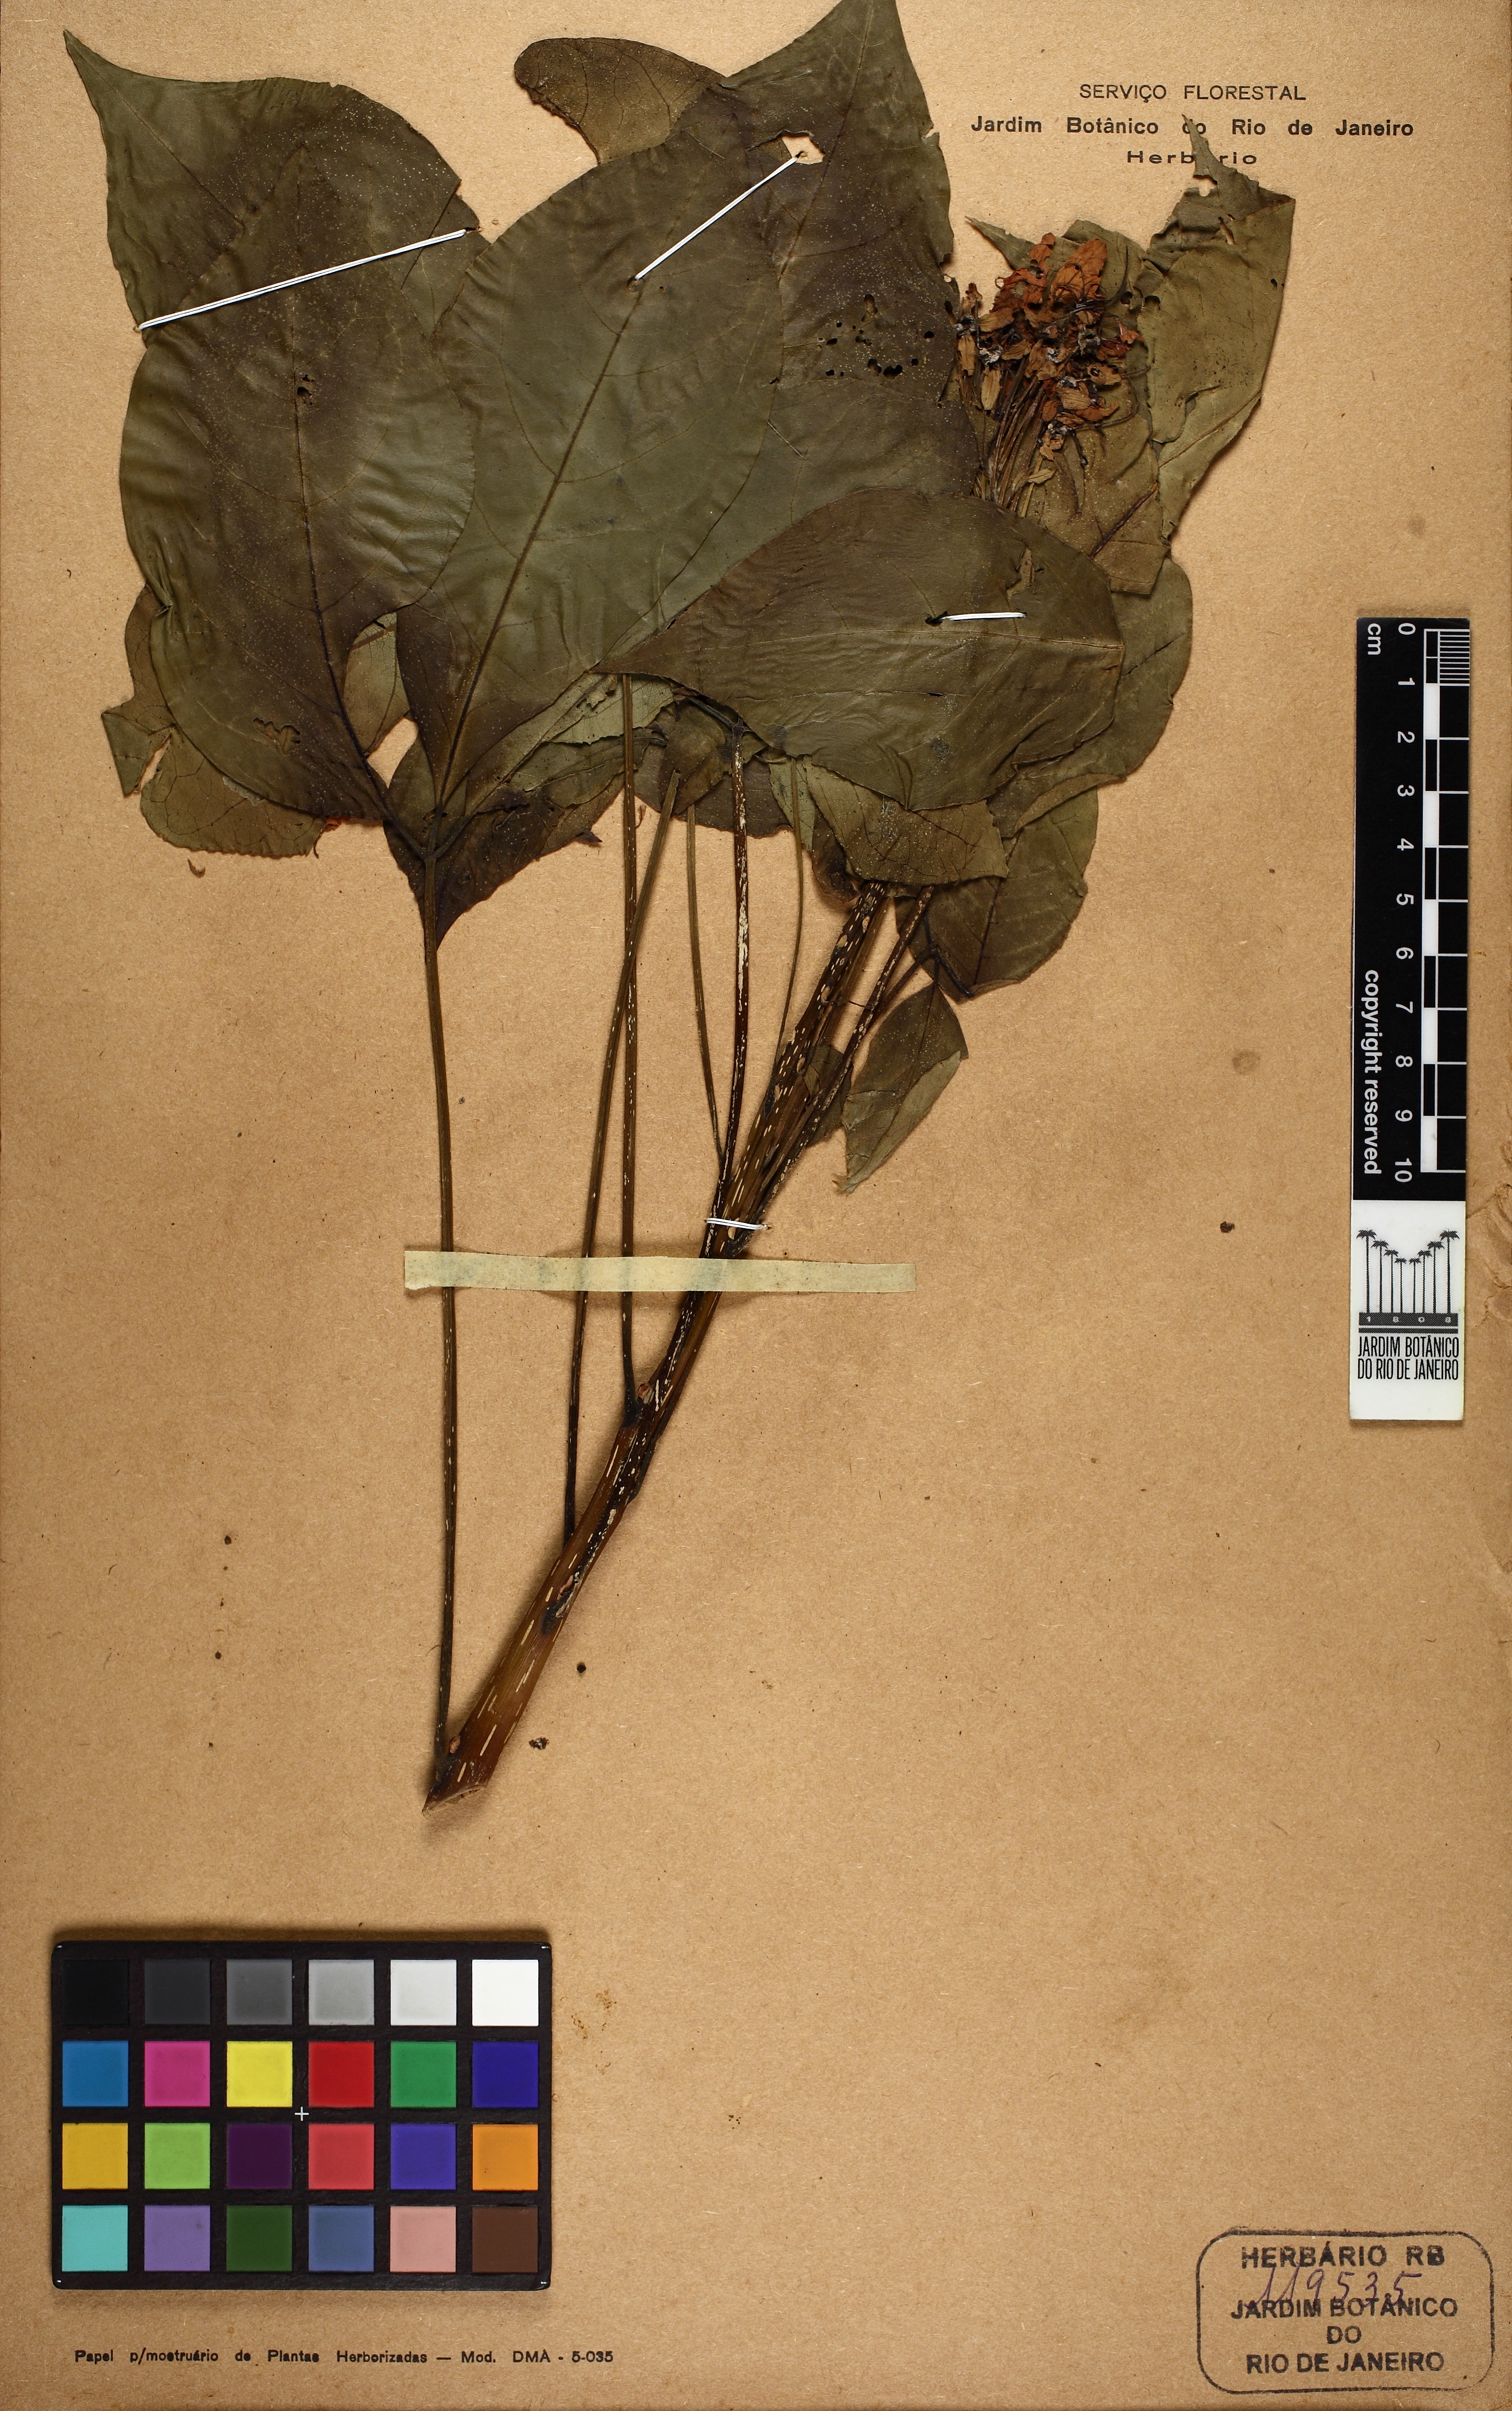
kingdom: Plantae
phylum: Tracheophyta
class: Magnoliopsida
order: Brassicales
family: Capparaceae
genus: Crateva
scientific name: Crateva tapia
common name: Garlic-pear
